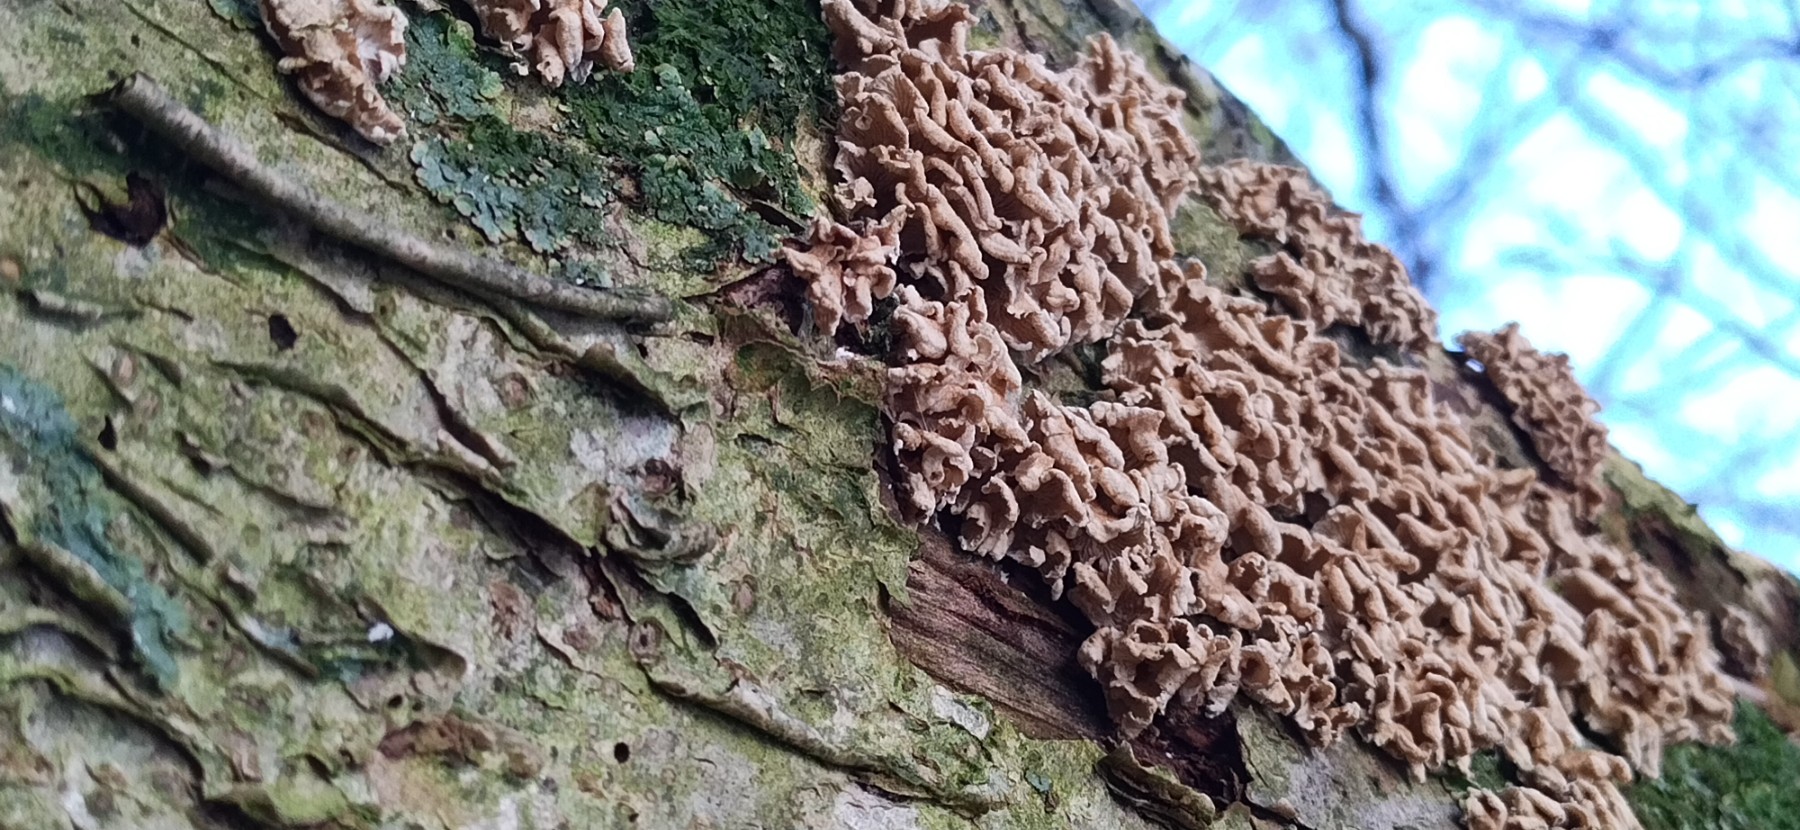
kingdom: Fungi
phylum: Basidiomycota
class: Agaricomycetes
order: Amylocorticiales
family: Amylocorticiaceae
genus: Plicaturopsis
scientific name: Plicaturopsis crispa
